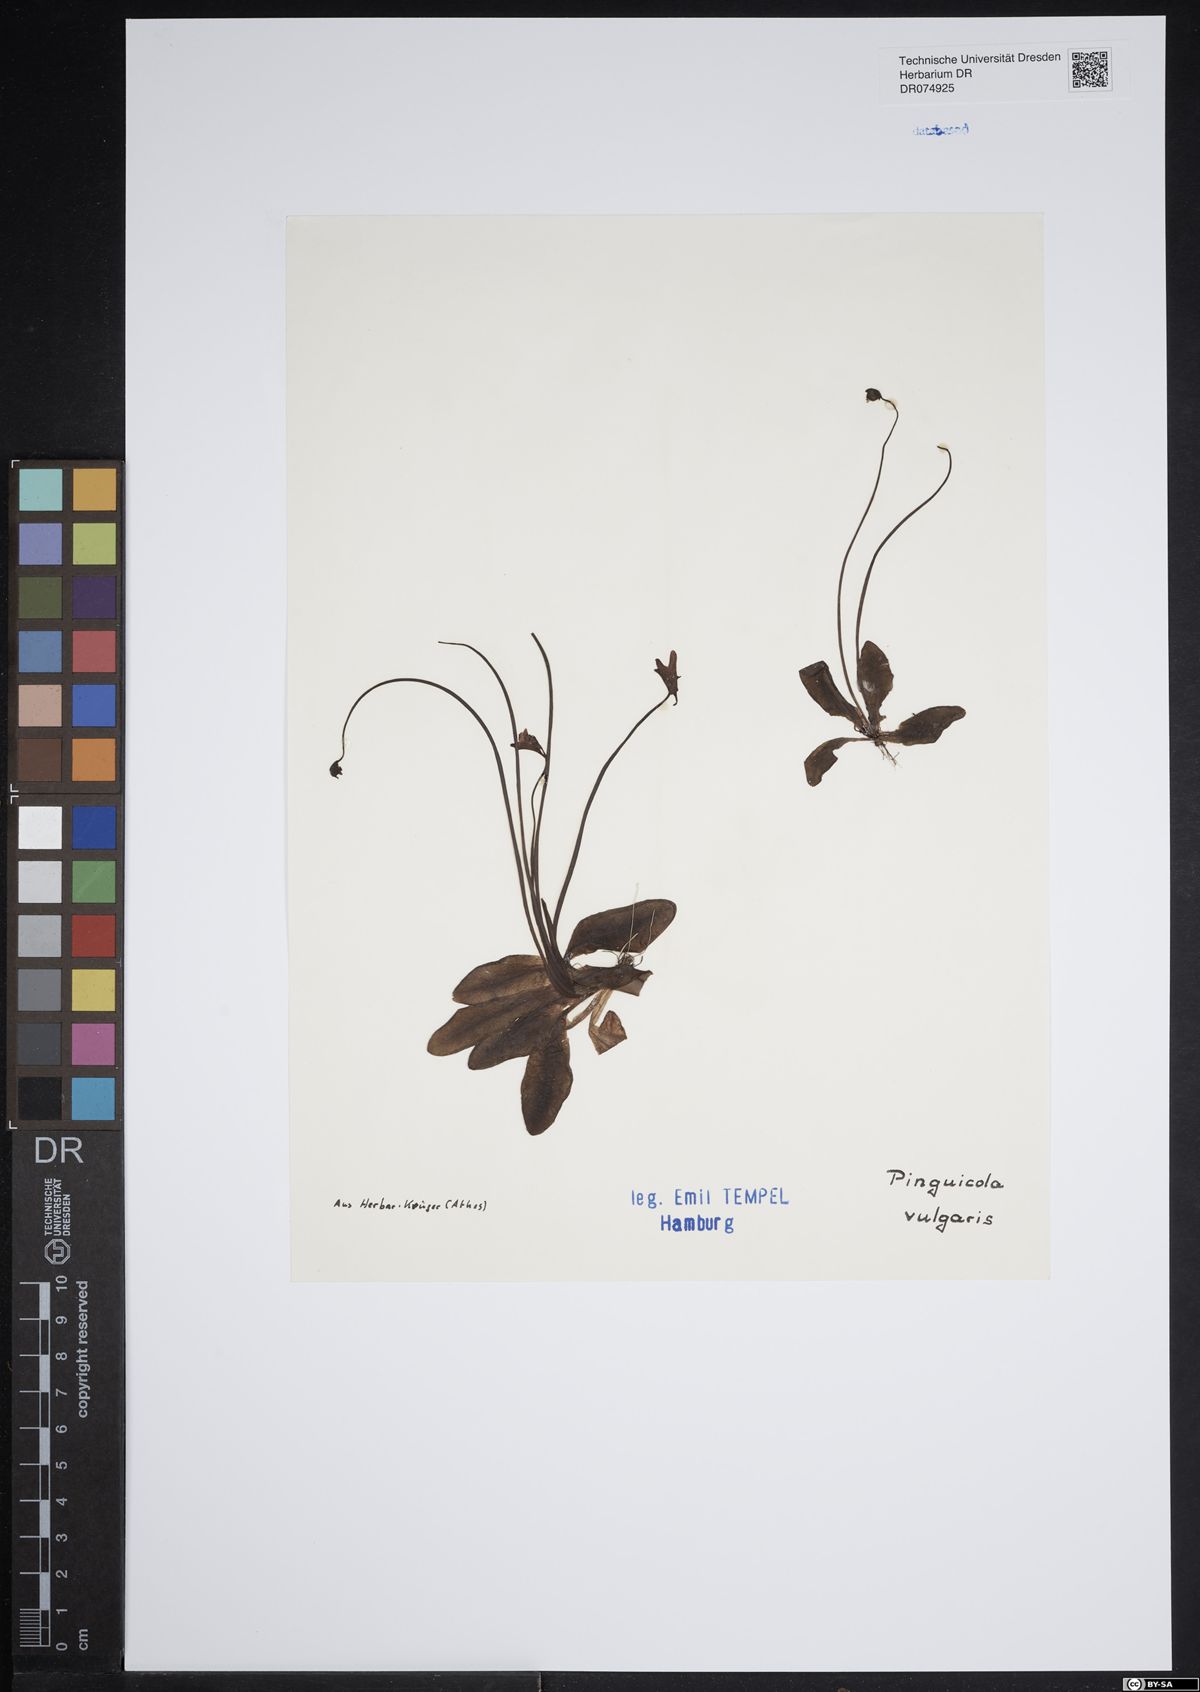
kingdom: Plantae
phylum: Tracheophyta
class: Magnoliopsida
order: Lamiales
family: Lentibulariaceae
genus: Pinguicula
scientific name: Pinguicula vulgaris
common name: Common butterwort
